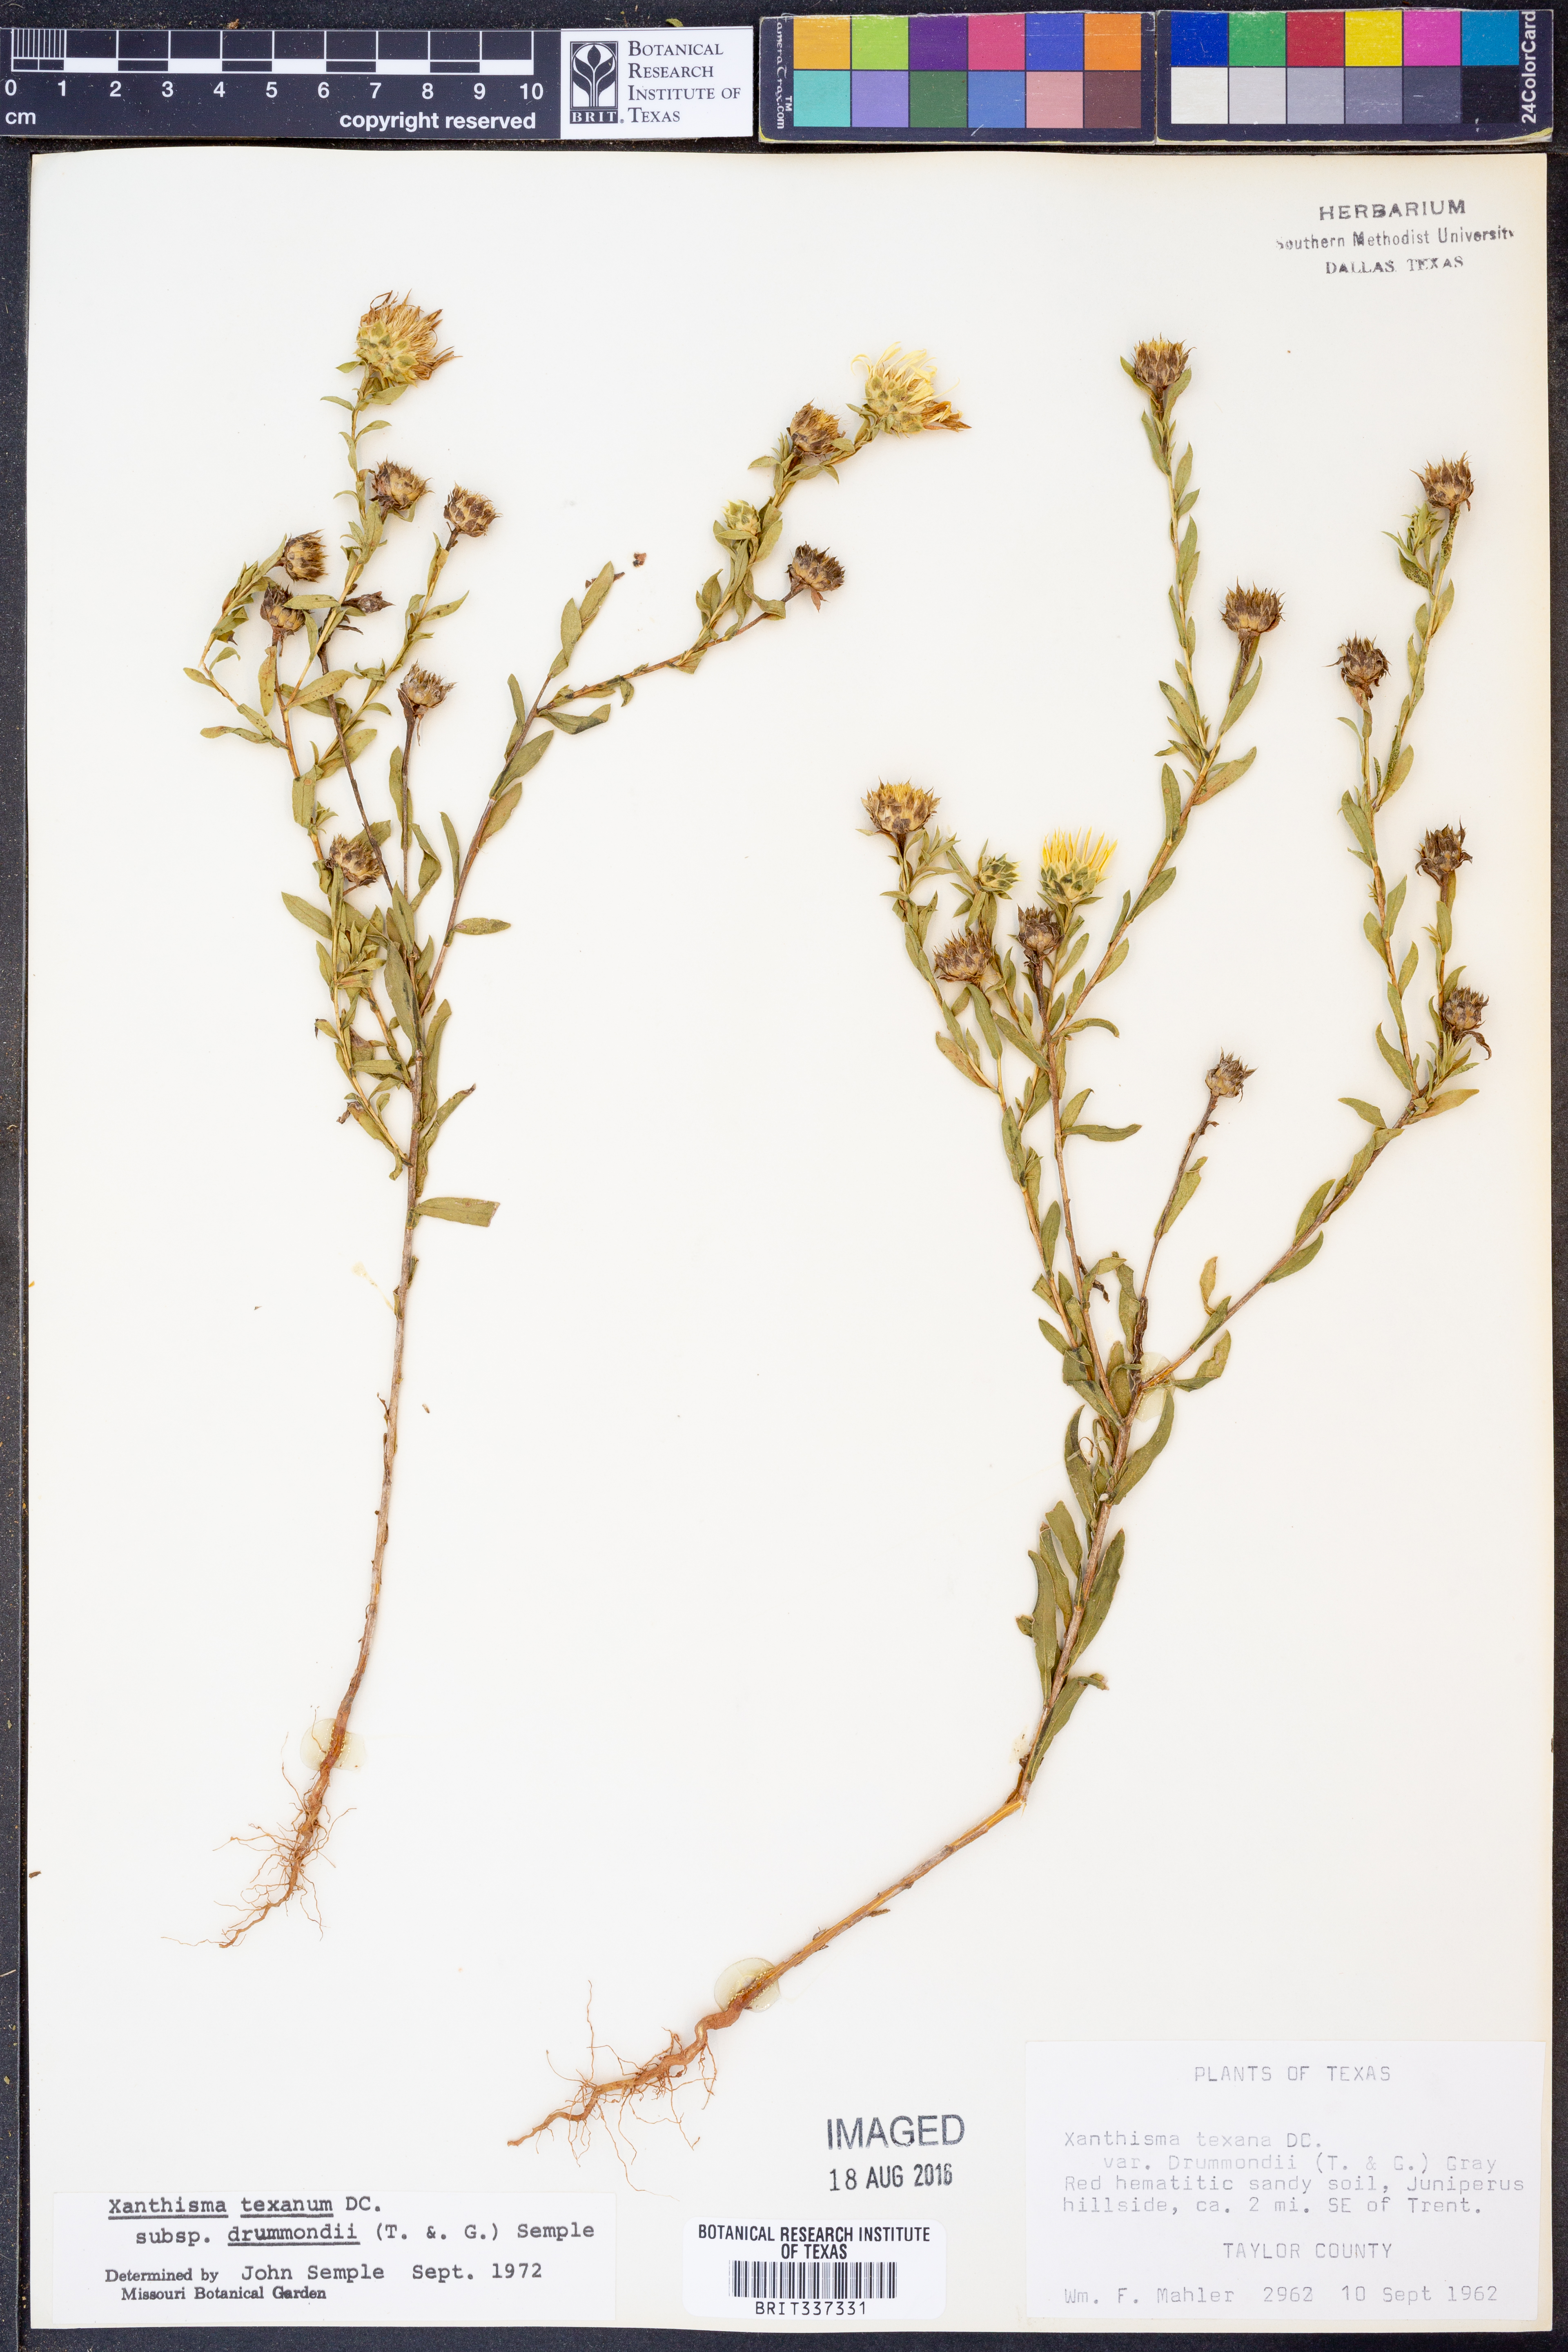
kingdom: Plantae
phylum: Tracheophyta
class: Magnoliopsida
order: Asterales
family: Asteraceae
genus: Xanthisma
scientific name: Xanthisma texanum
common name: Texas sleepy daisy
